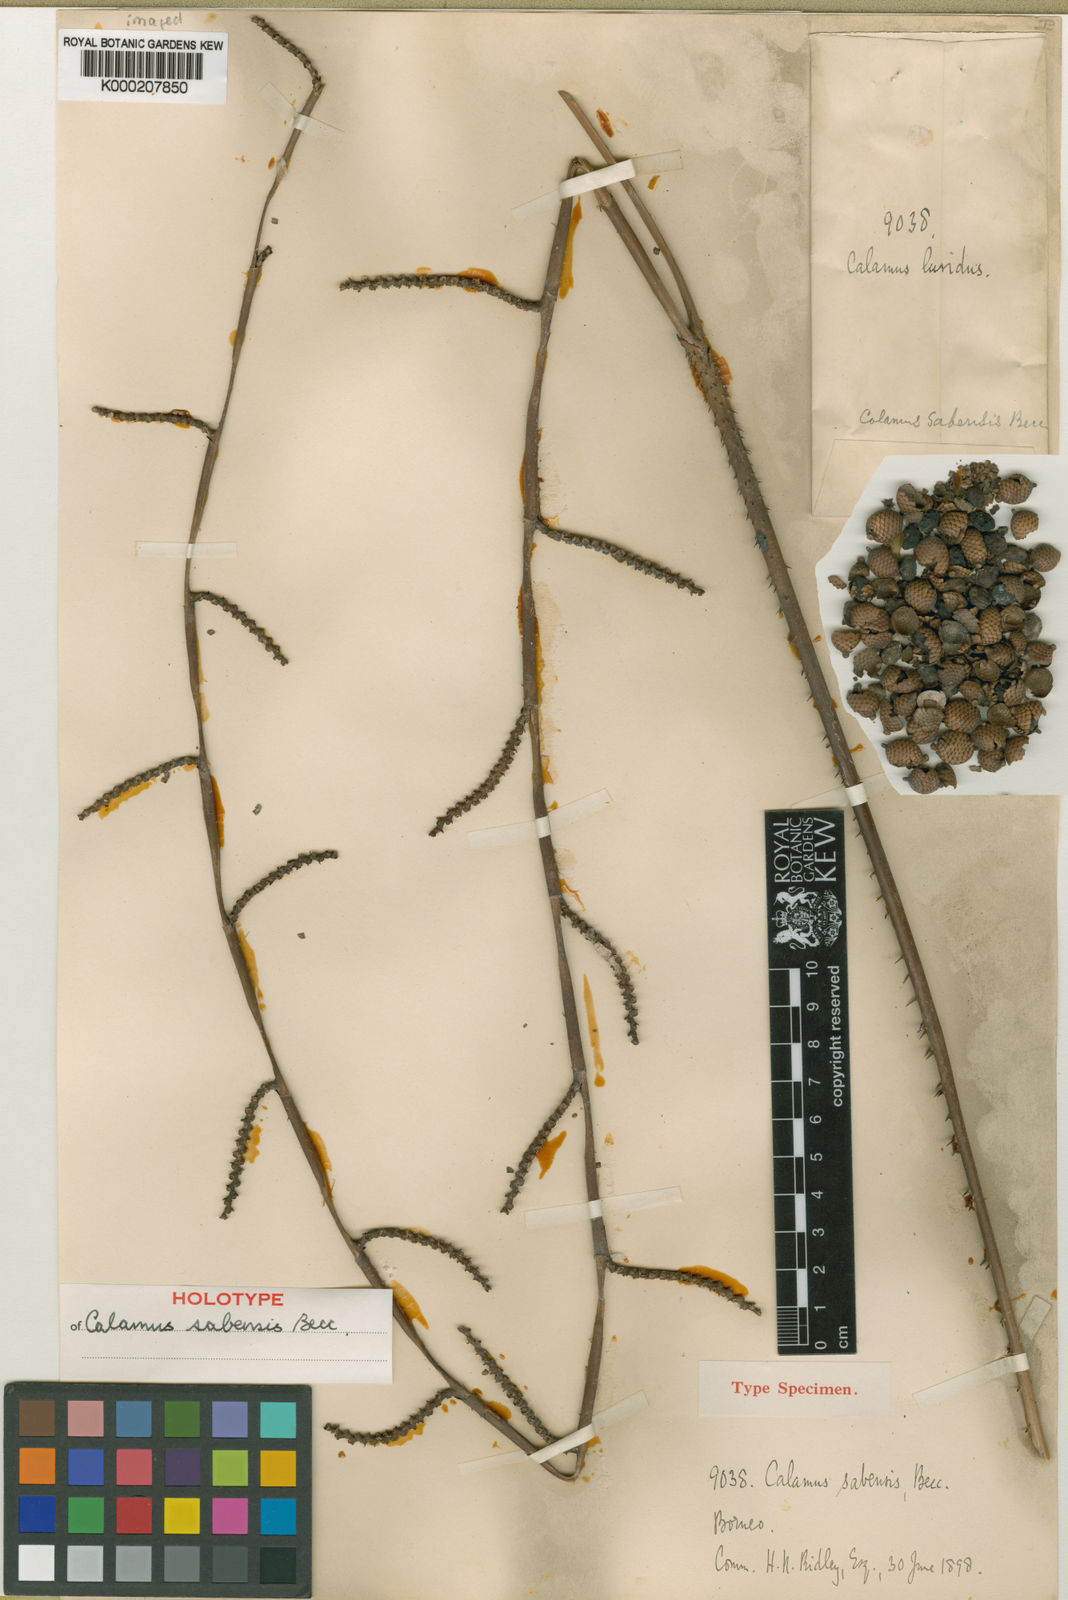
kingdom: Plantae
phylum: Tracheophyta
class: Liliopsida
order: Arecales
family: Arecaceae
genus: Calamus
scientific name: Calamus sabensis
